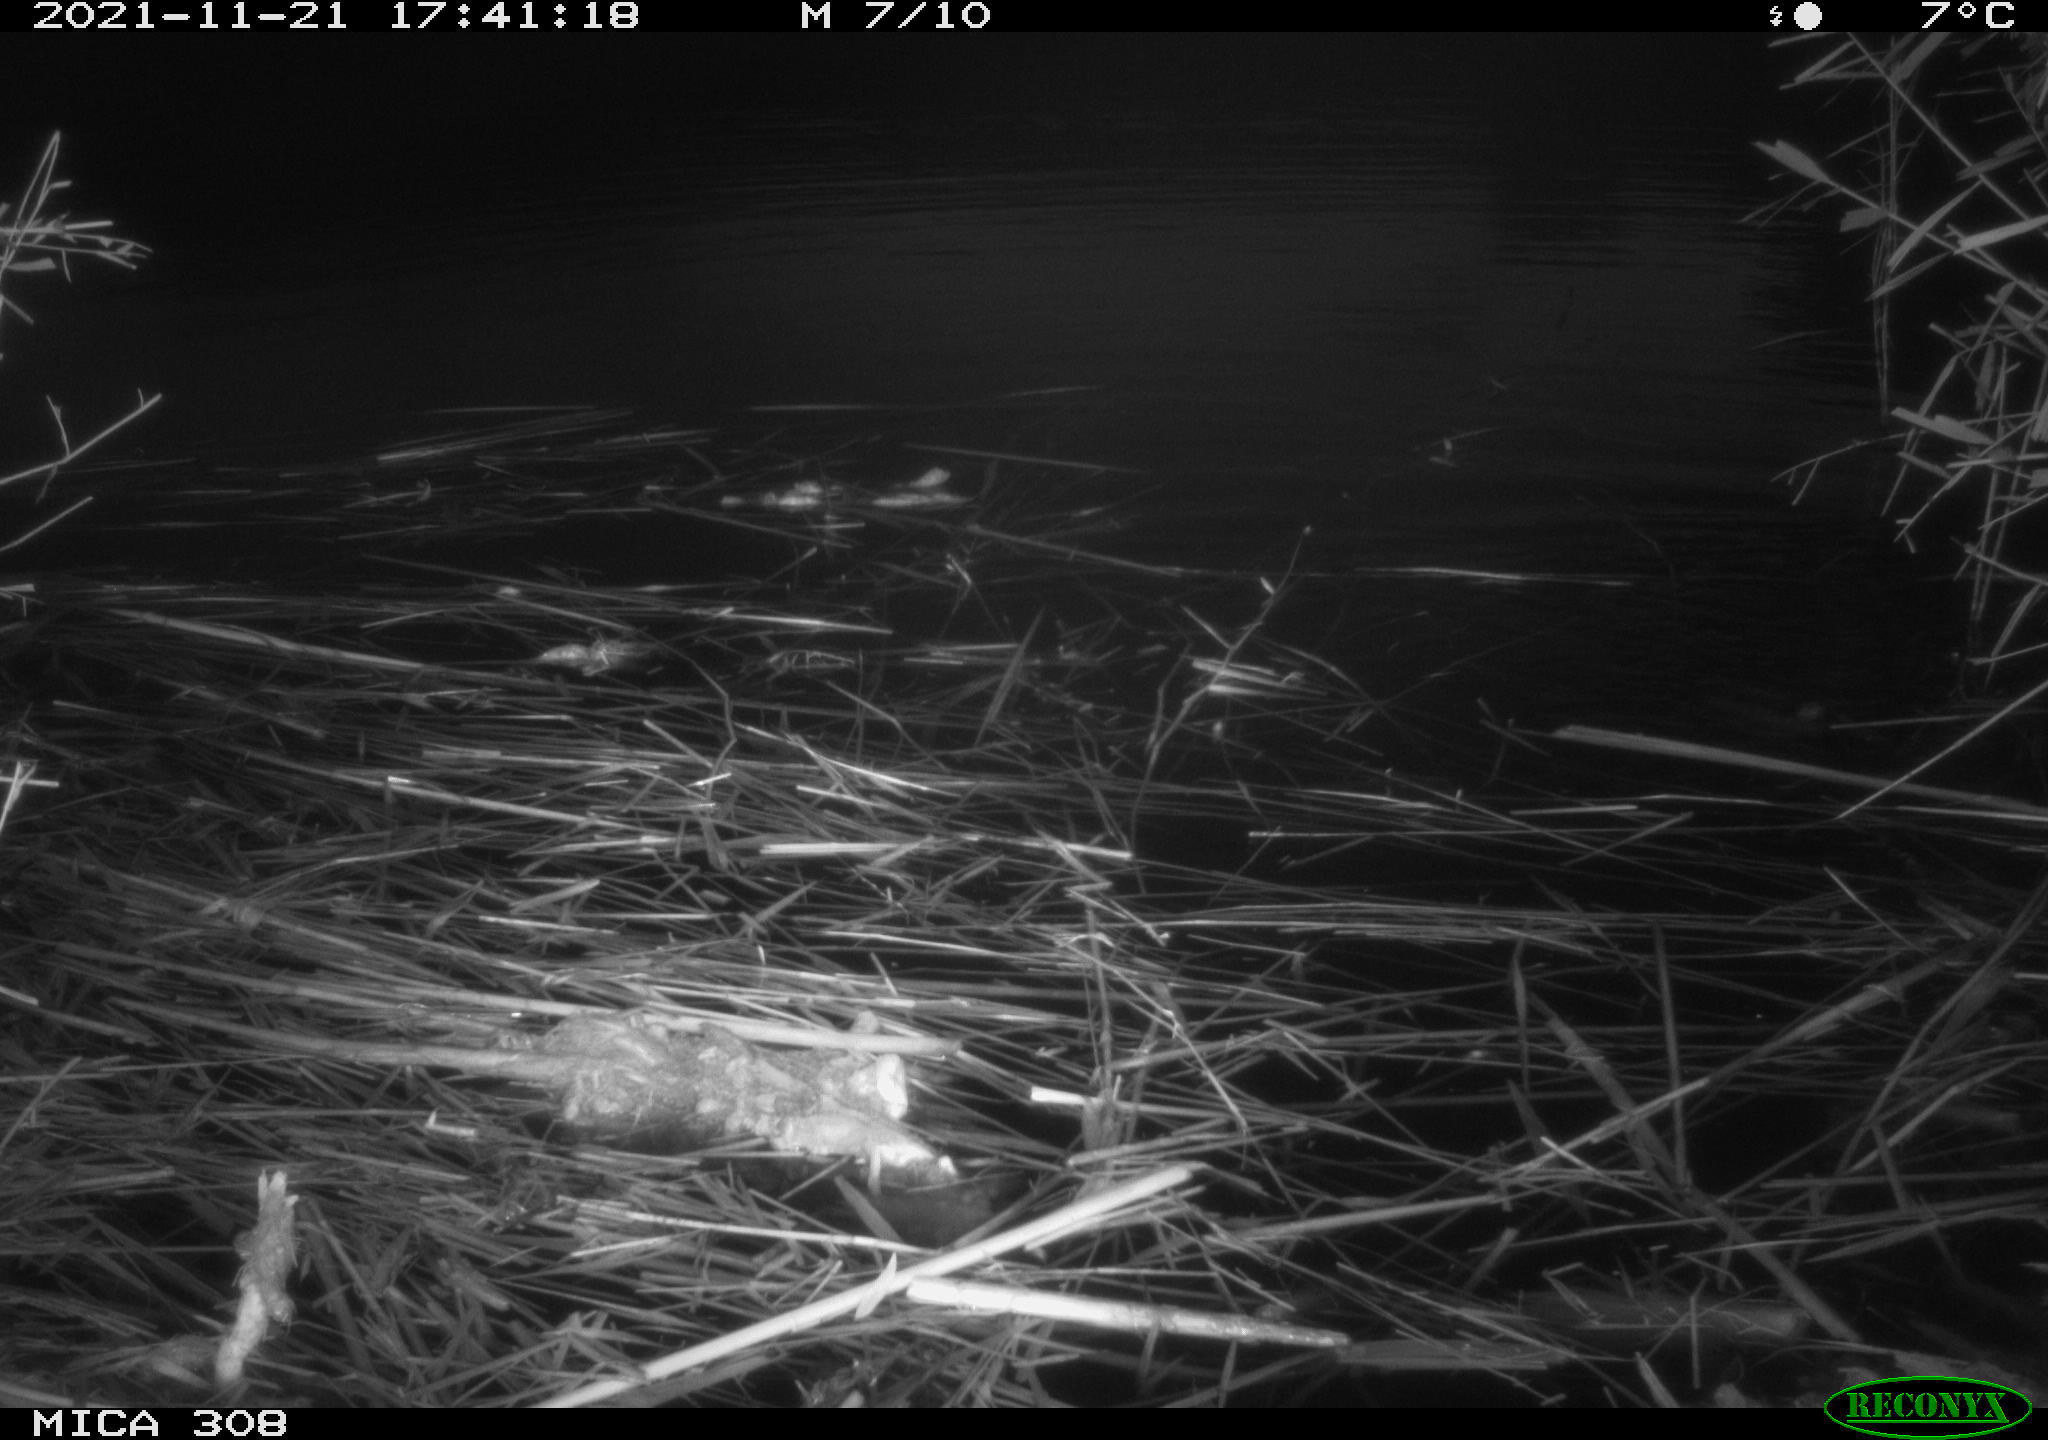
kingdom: Animalia
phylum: Chordata
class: Mammalia
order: Rodentia
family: Cricetidae
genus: Ondatra
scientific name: Ondatra zibethicus
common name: Muskrat
